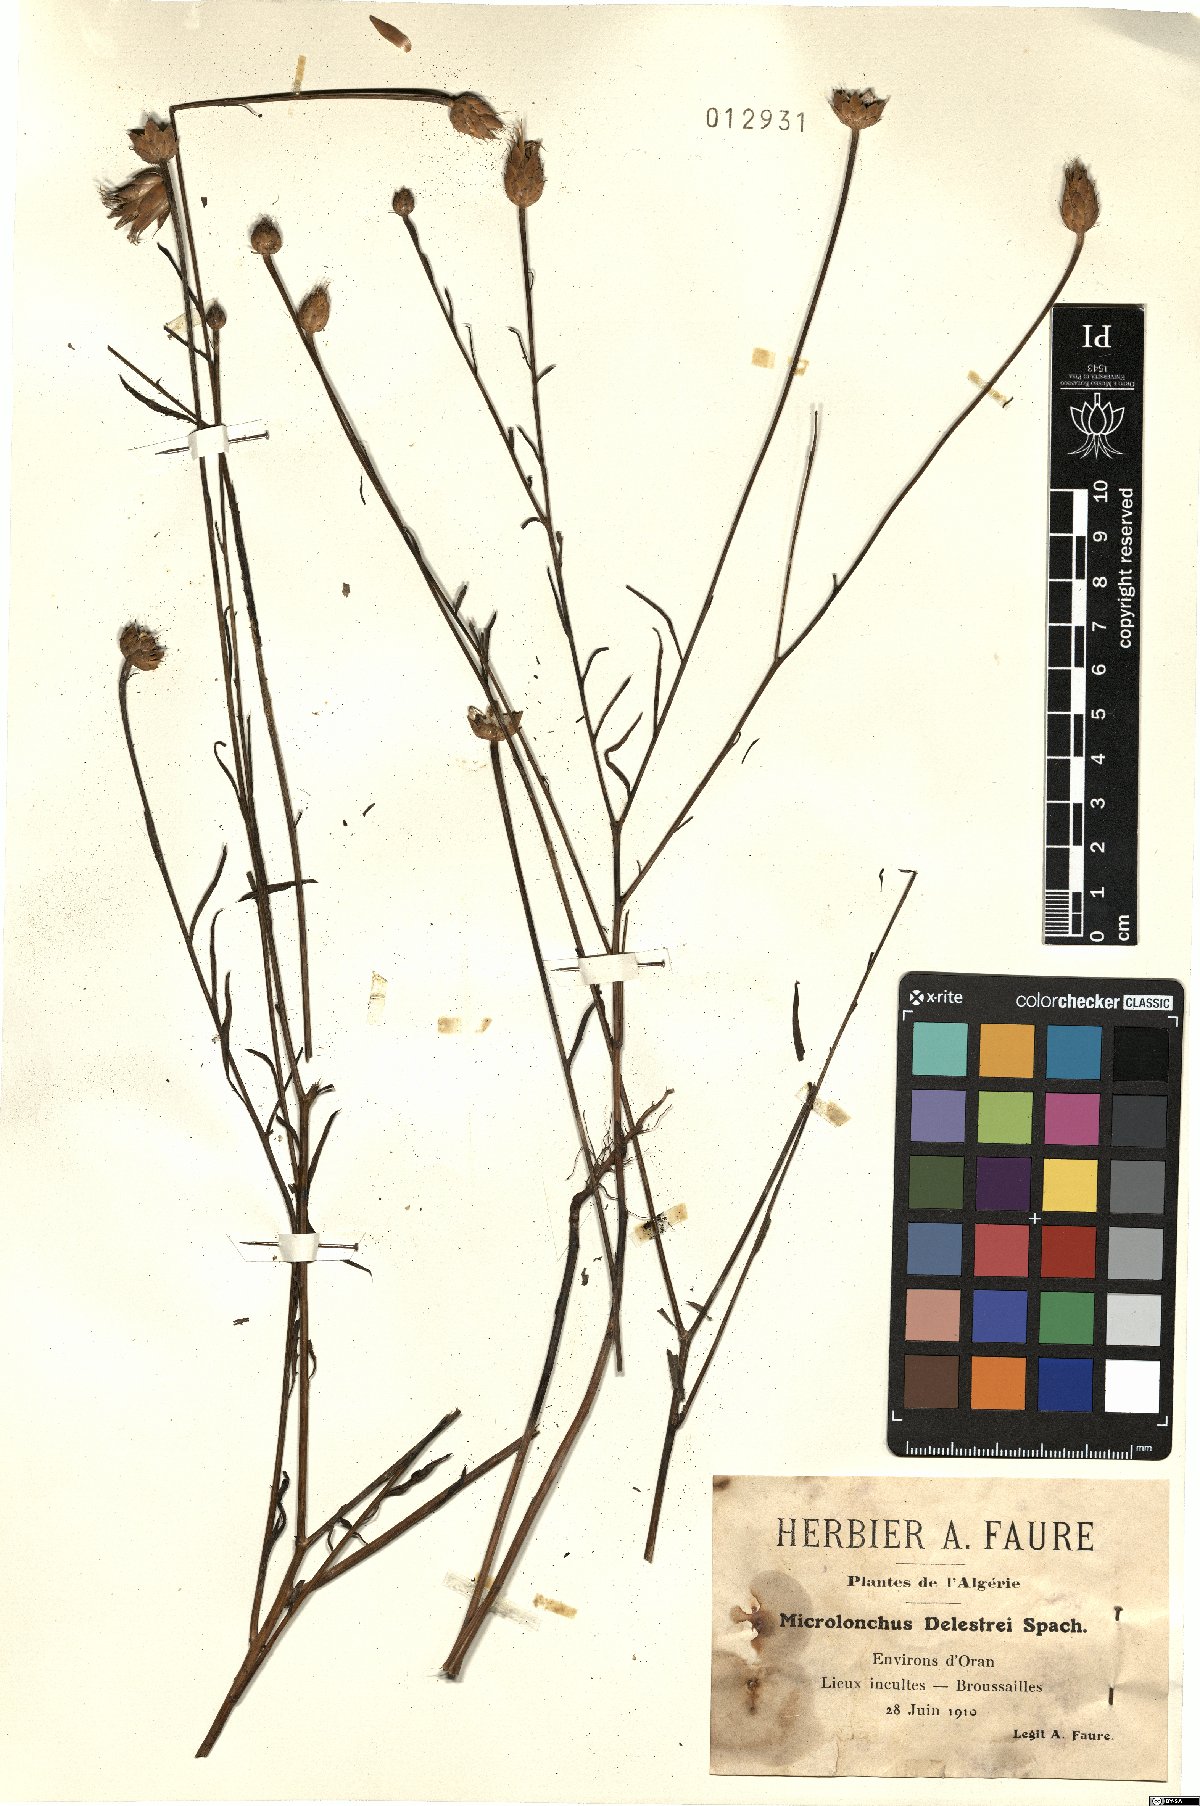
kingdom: Plantae
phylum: Tracheophyta
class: Magnoliopsida
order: Asterales
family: Asteraceae
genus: Mantisalca
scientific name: Mantisalca delestrei
